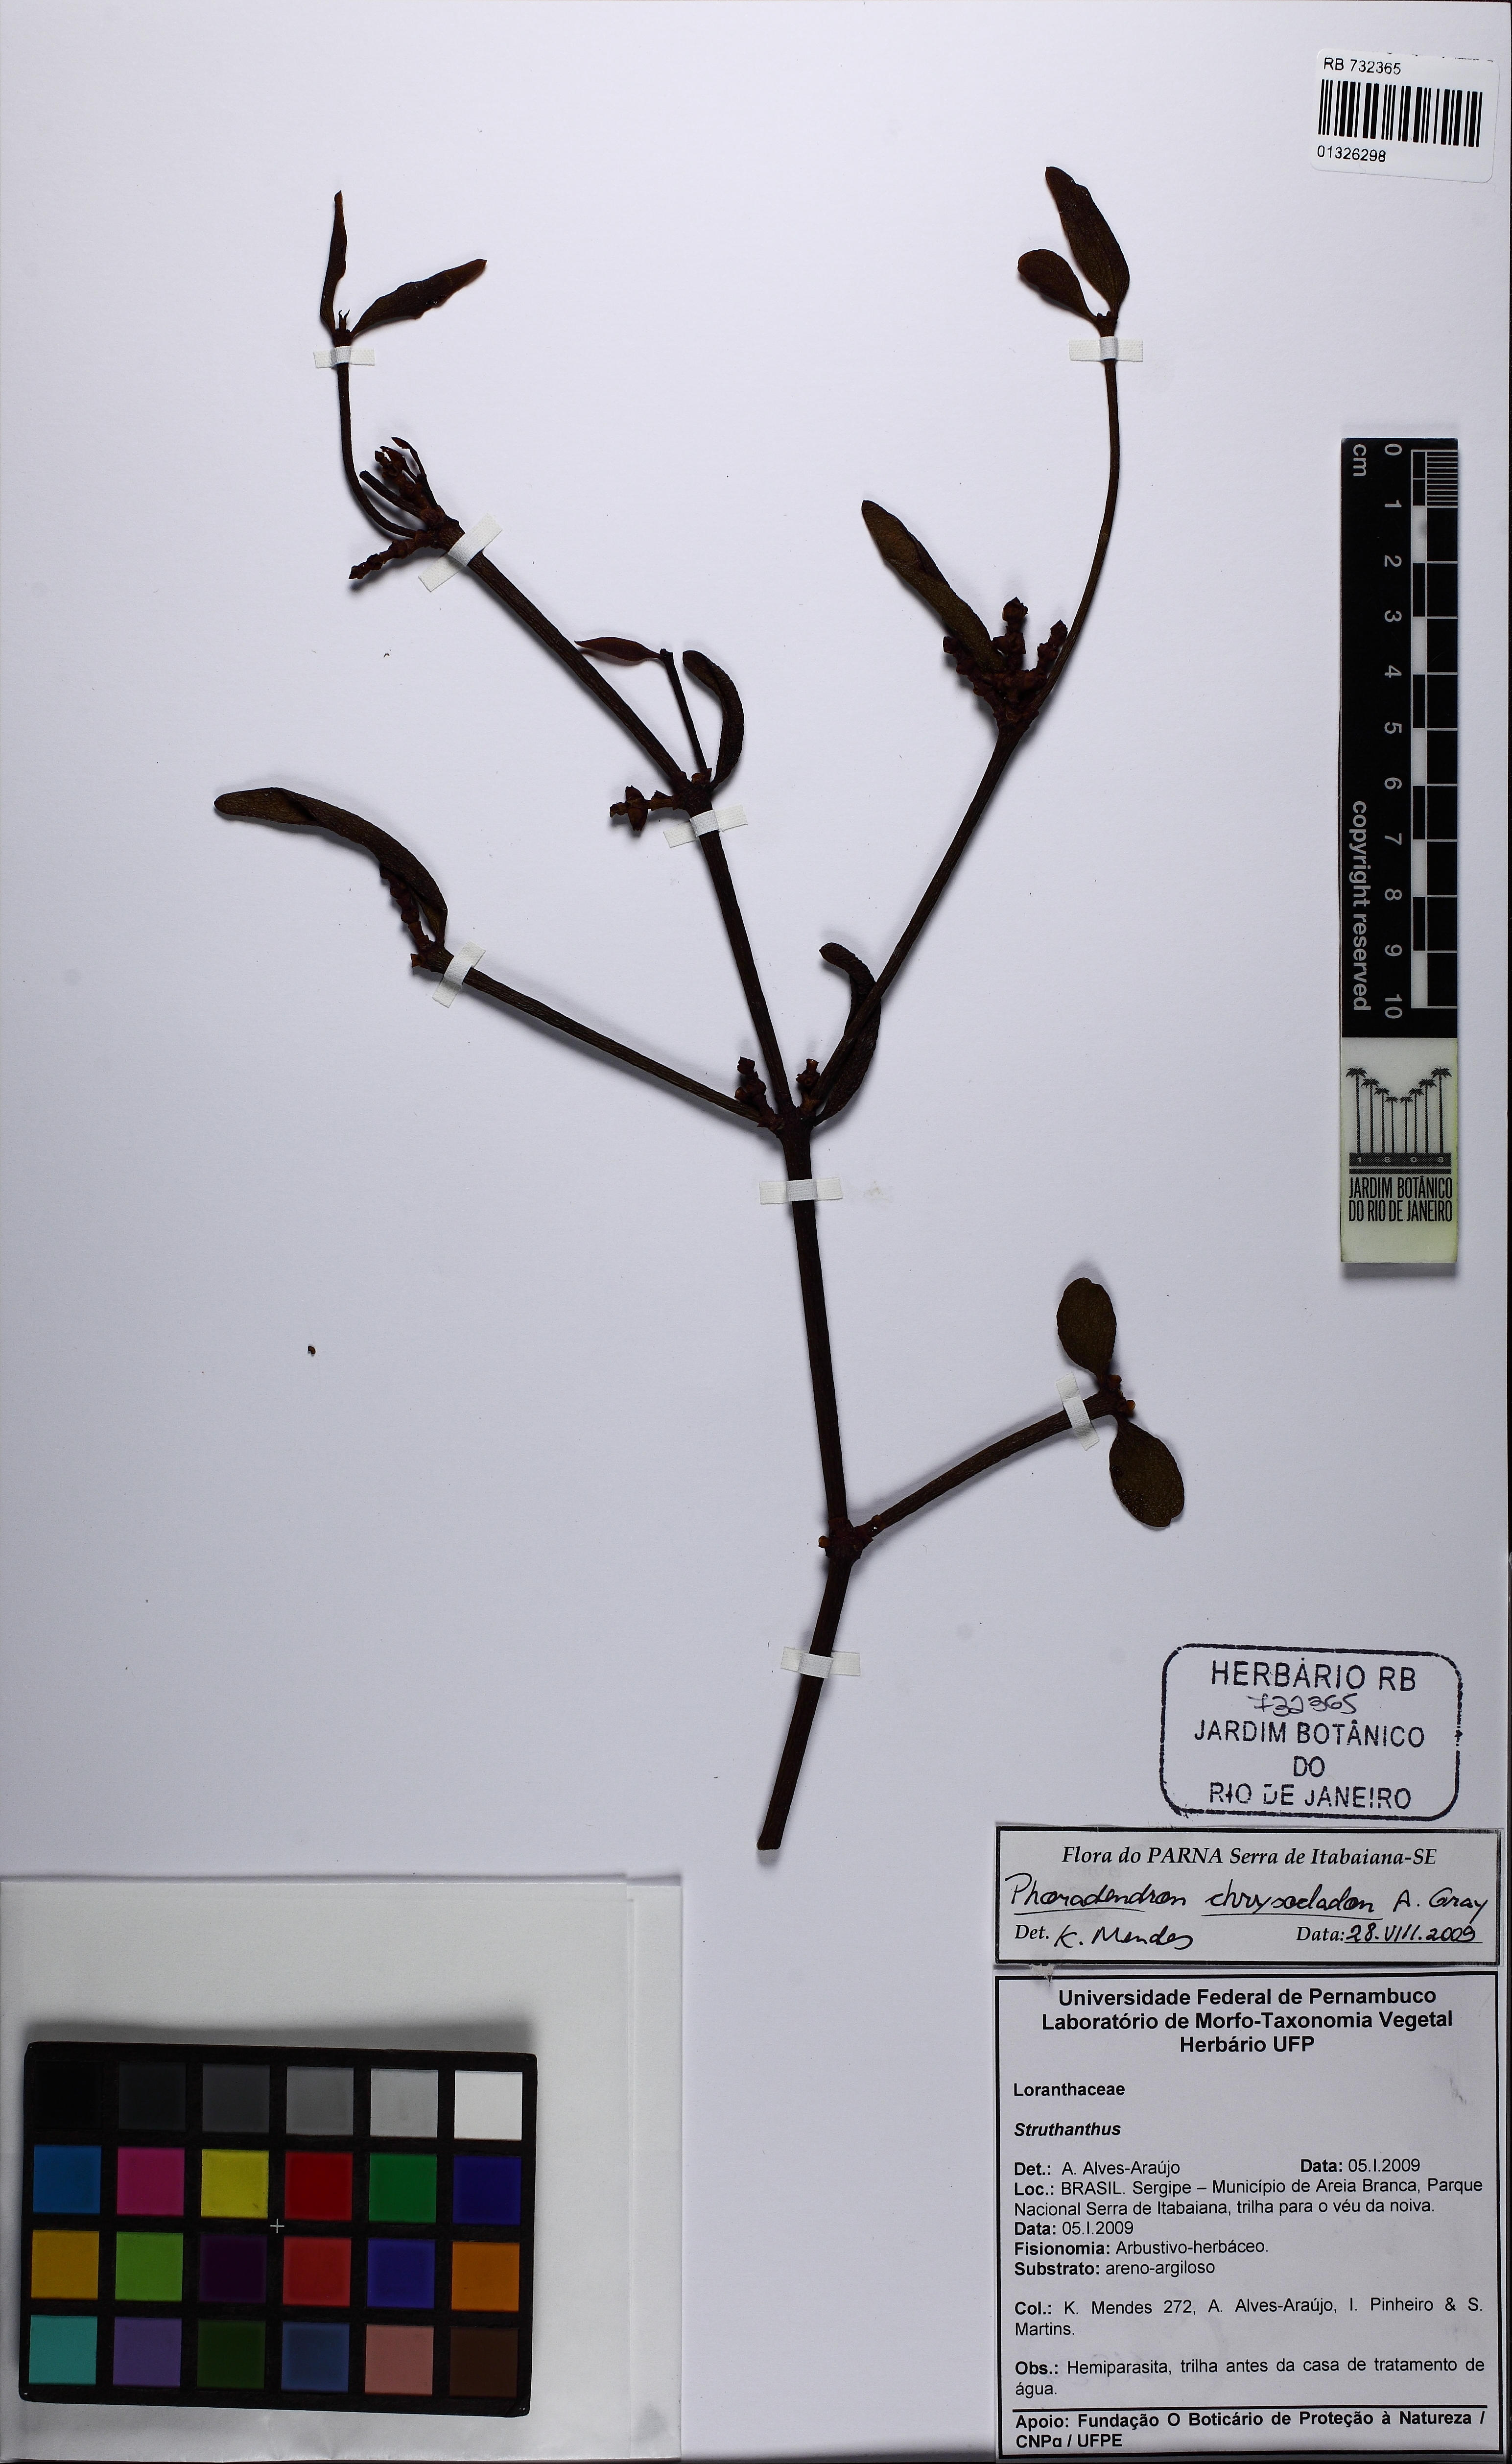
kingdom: Plantae
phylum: Tracheophyta
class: Magnoliopsida
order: Santalales
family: Viscaceae
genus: Phoradendron
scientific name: Phoradendron chrysocladon
